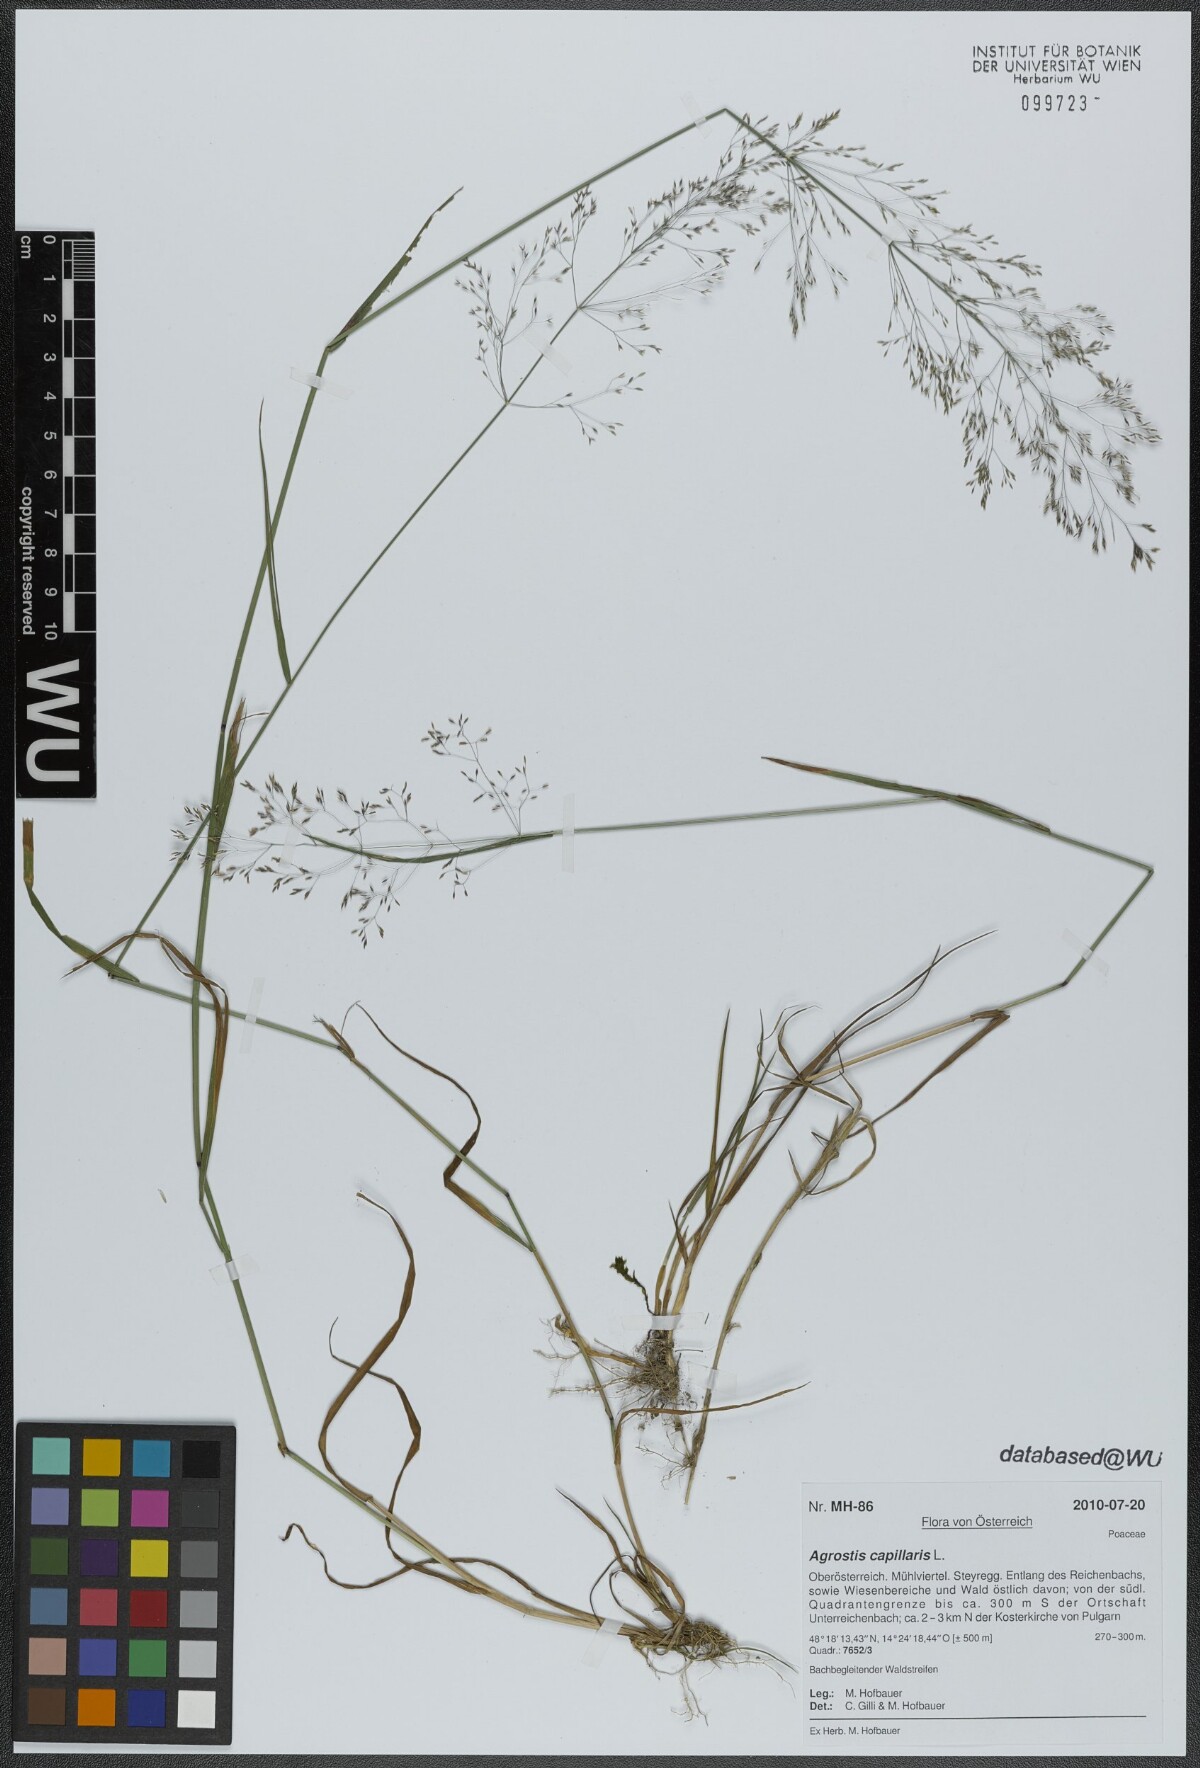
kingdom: Plantae
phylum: Tracheophyta
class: Liliopsida
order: Poales
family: Poaceae
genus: Agrostis
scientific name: Agrostis capillaris
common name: Colonial bentgrass
